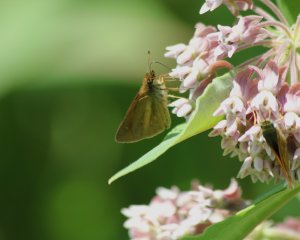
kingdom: Animalia
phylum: Arthropoda
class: Insecta
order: Lepidoptera
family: Hesperiidae
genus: Poanes
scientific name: Poanes viator
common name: Broad-winged Skipper
